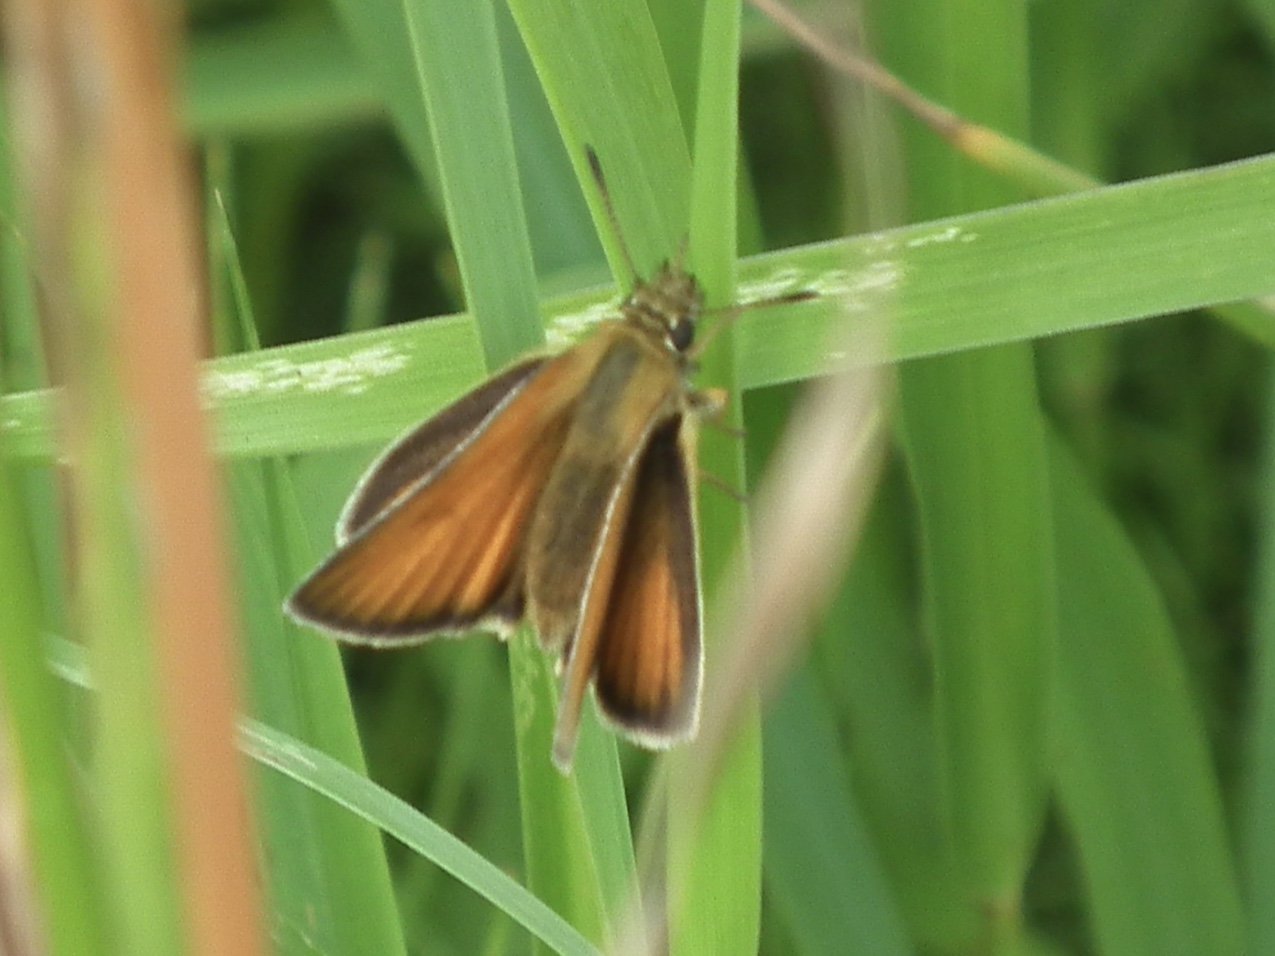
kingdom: Animalia
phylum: Arthropoda
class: Insecta
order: Lepidoptera
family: Hesperiidae
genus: Thymelicus
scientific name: Thymelicus lineola
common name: European Skipper
